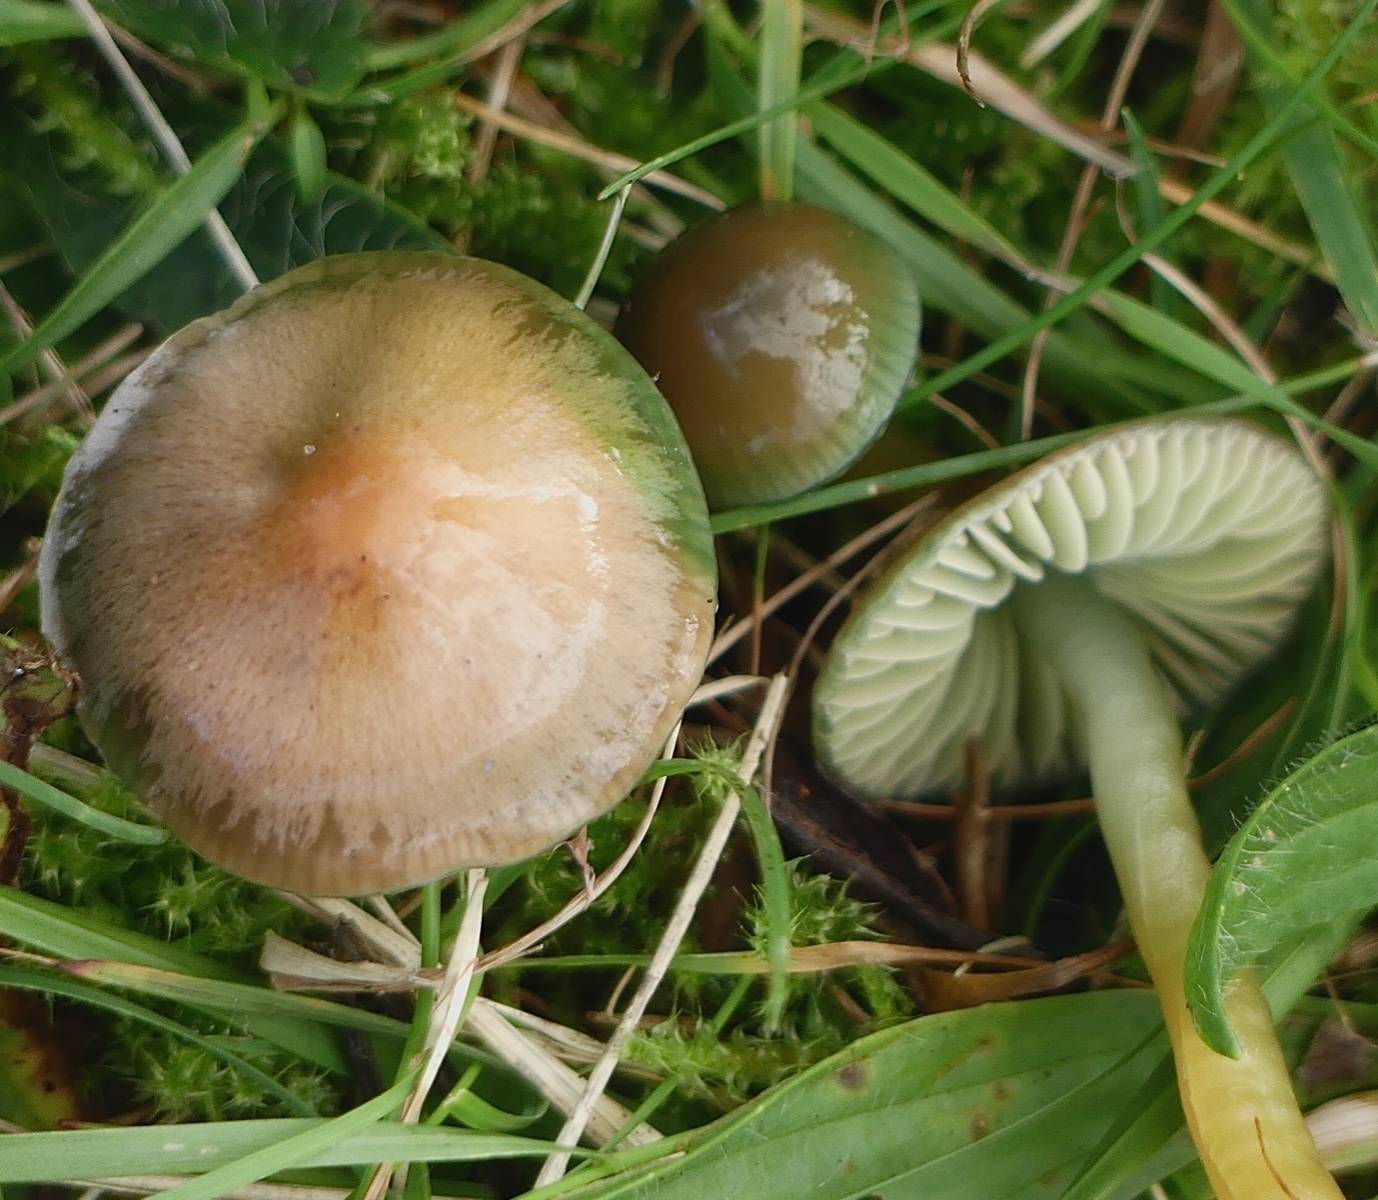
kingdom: Fungi
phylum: Basidiomycota
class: Agaricomycetes
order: Agaricales
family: Hygrophoraceae
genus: Gliophorus
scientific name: Gliophorus psittacinus
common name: papegøje-vokshat
